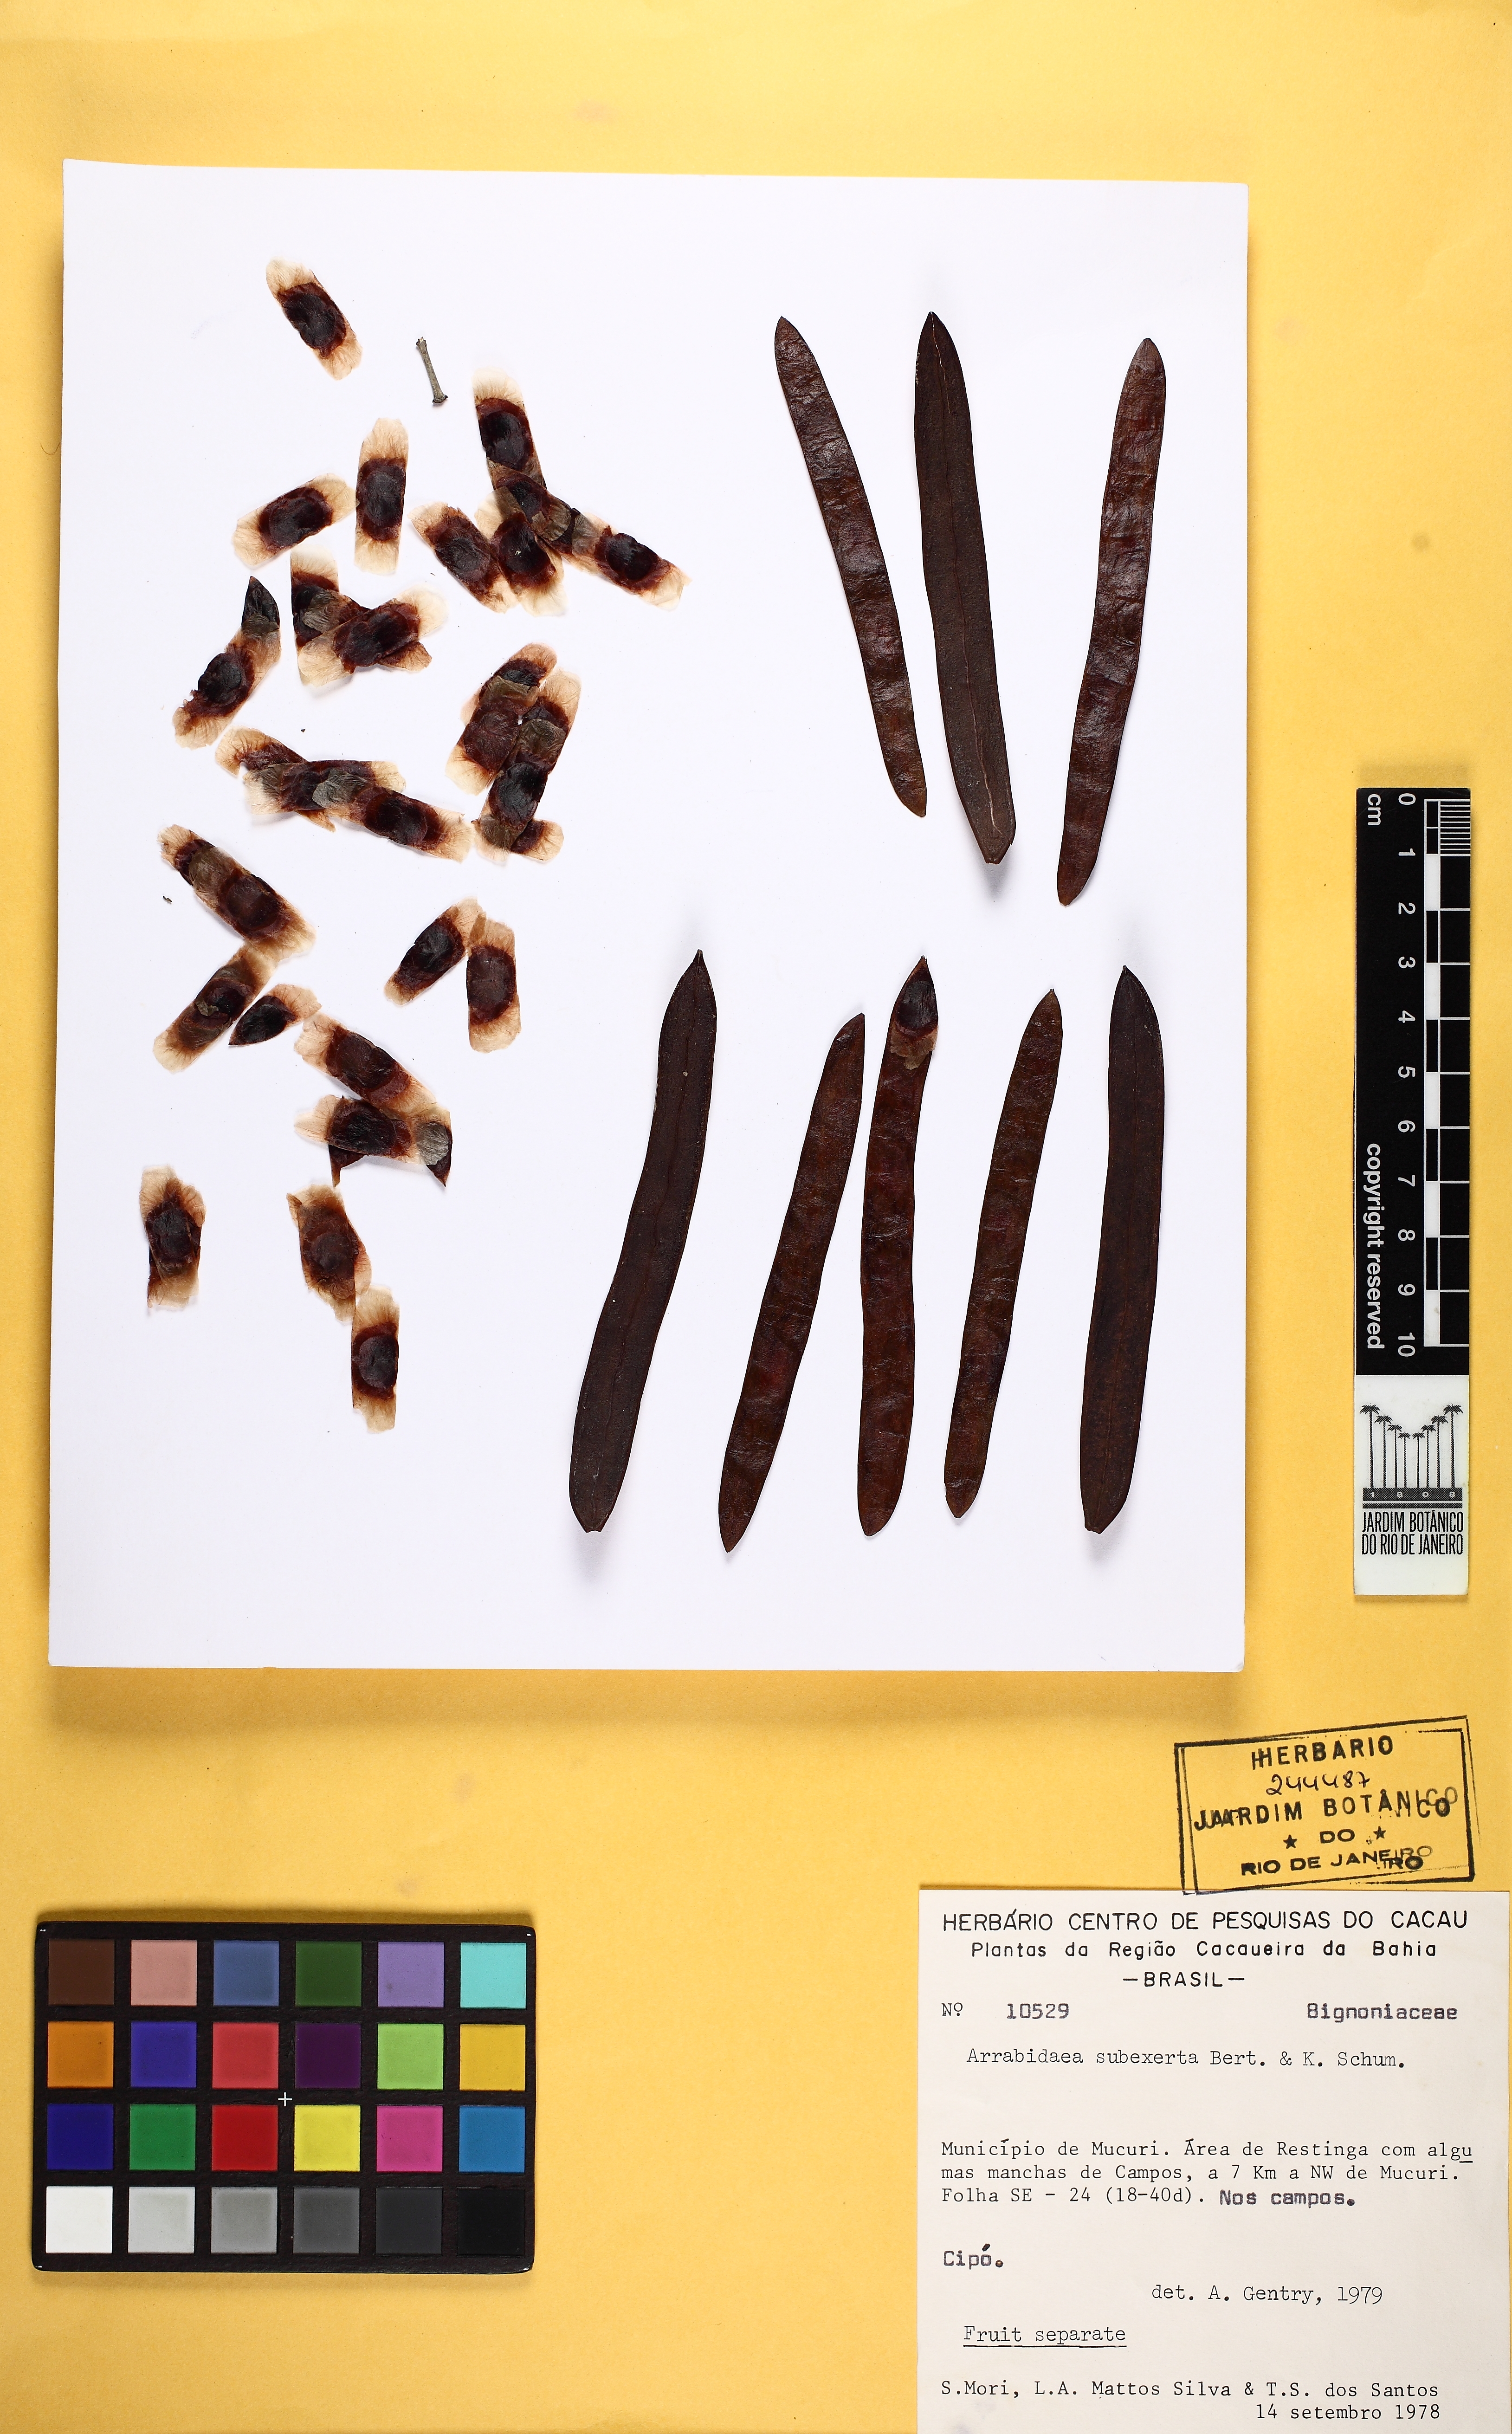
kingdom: Plantae
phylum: Tracheophyta
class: Magnoliopsida
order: Lamiales
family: Bignoniaceae
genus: Fridericia
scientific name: Fridericia subincana
